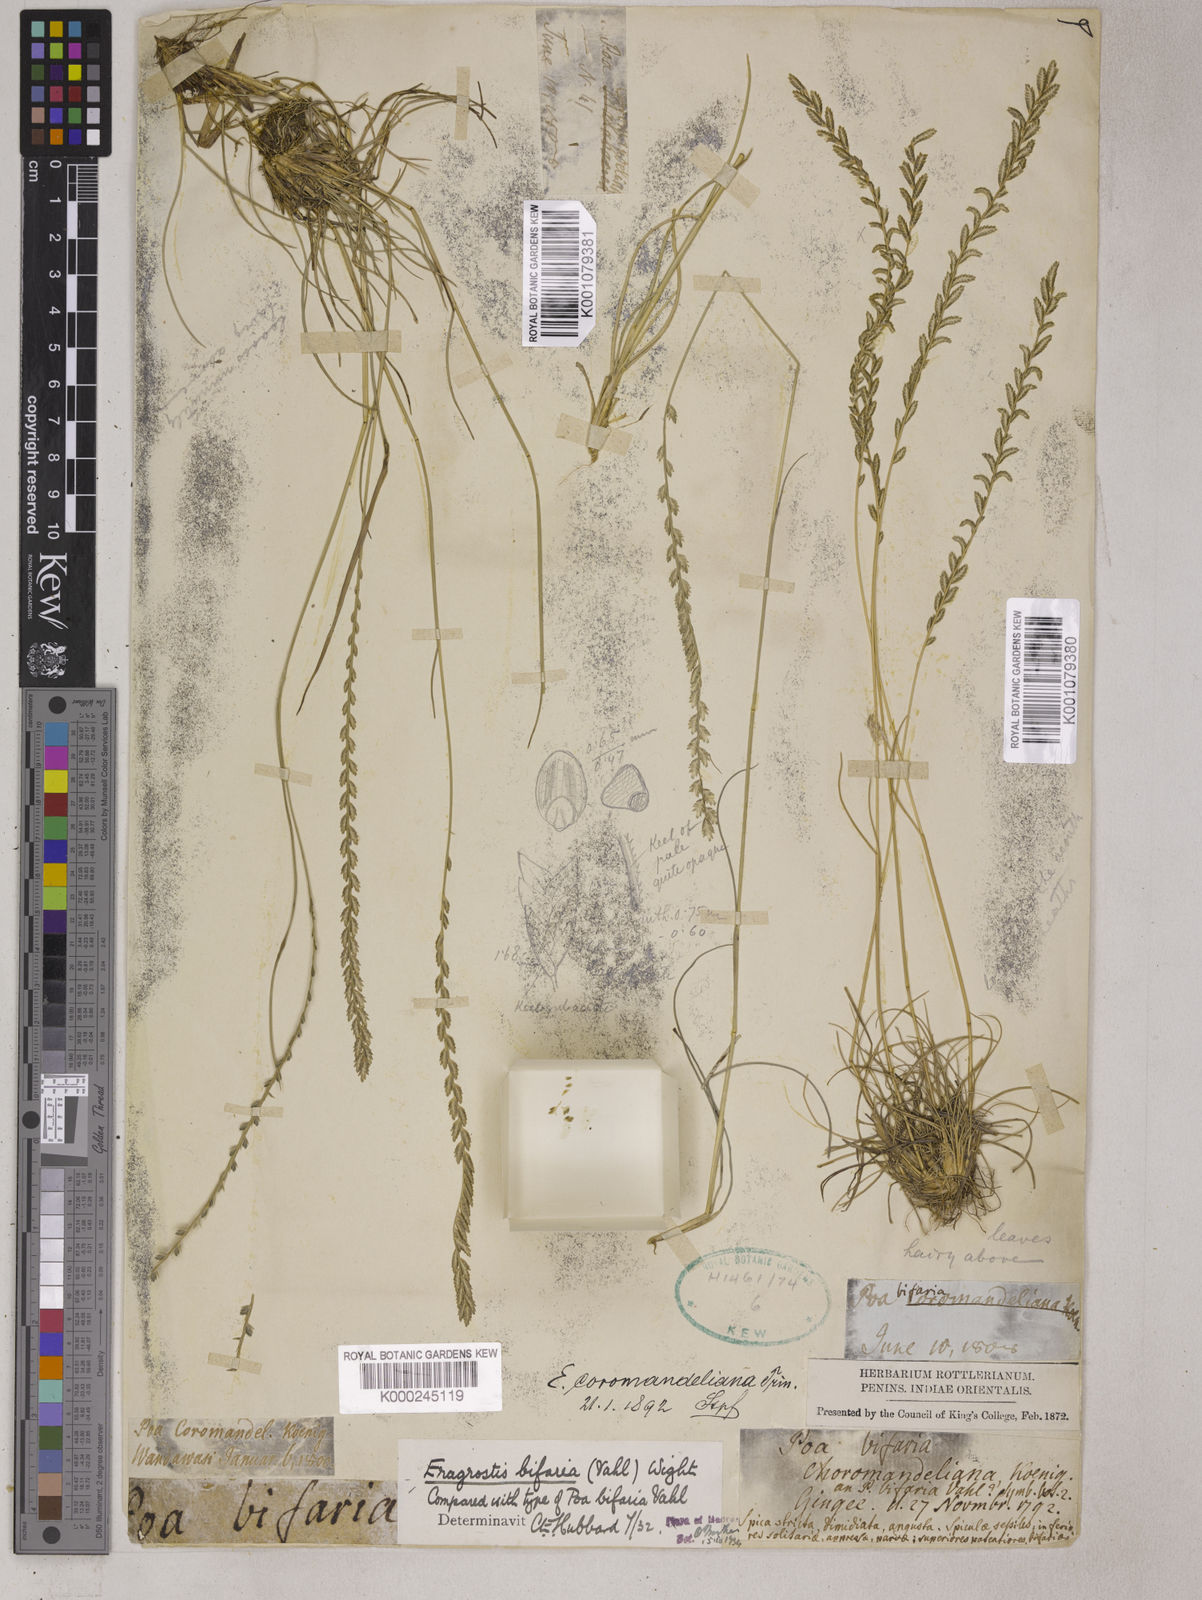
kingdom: Plantae
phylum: Tracheophyta
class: Liliopsida
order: Poales
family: Poaceae
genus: Eragrostiella
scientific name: Eragrostiella bifaria
